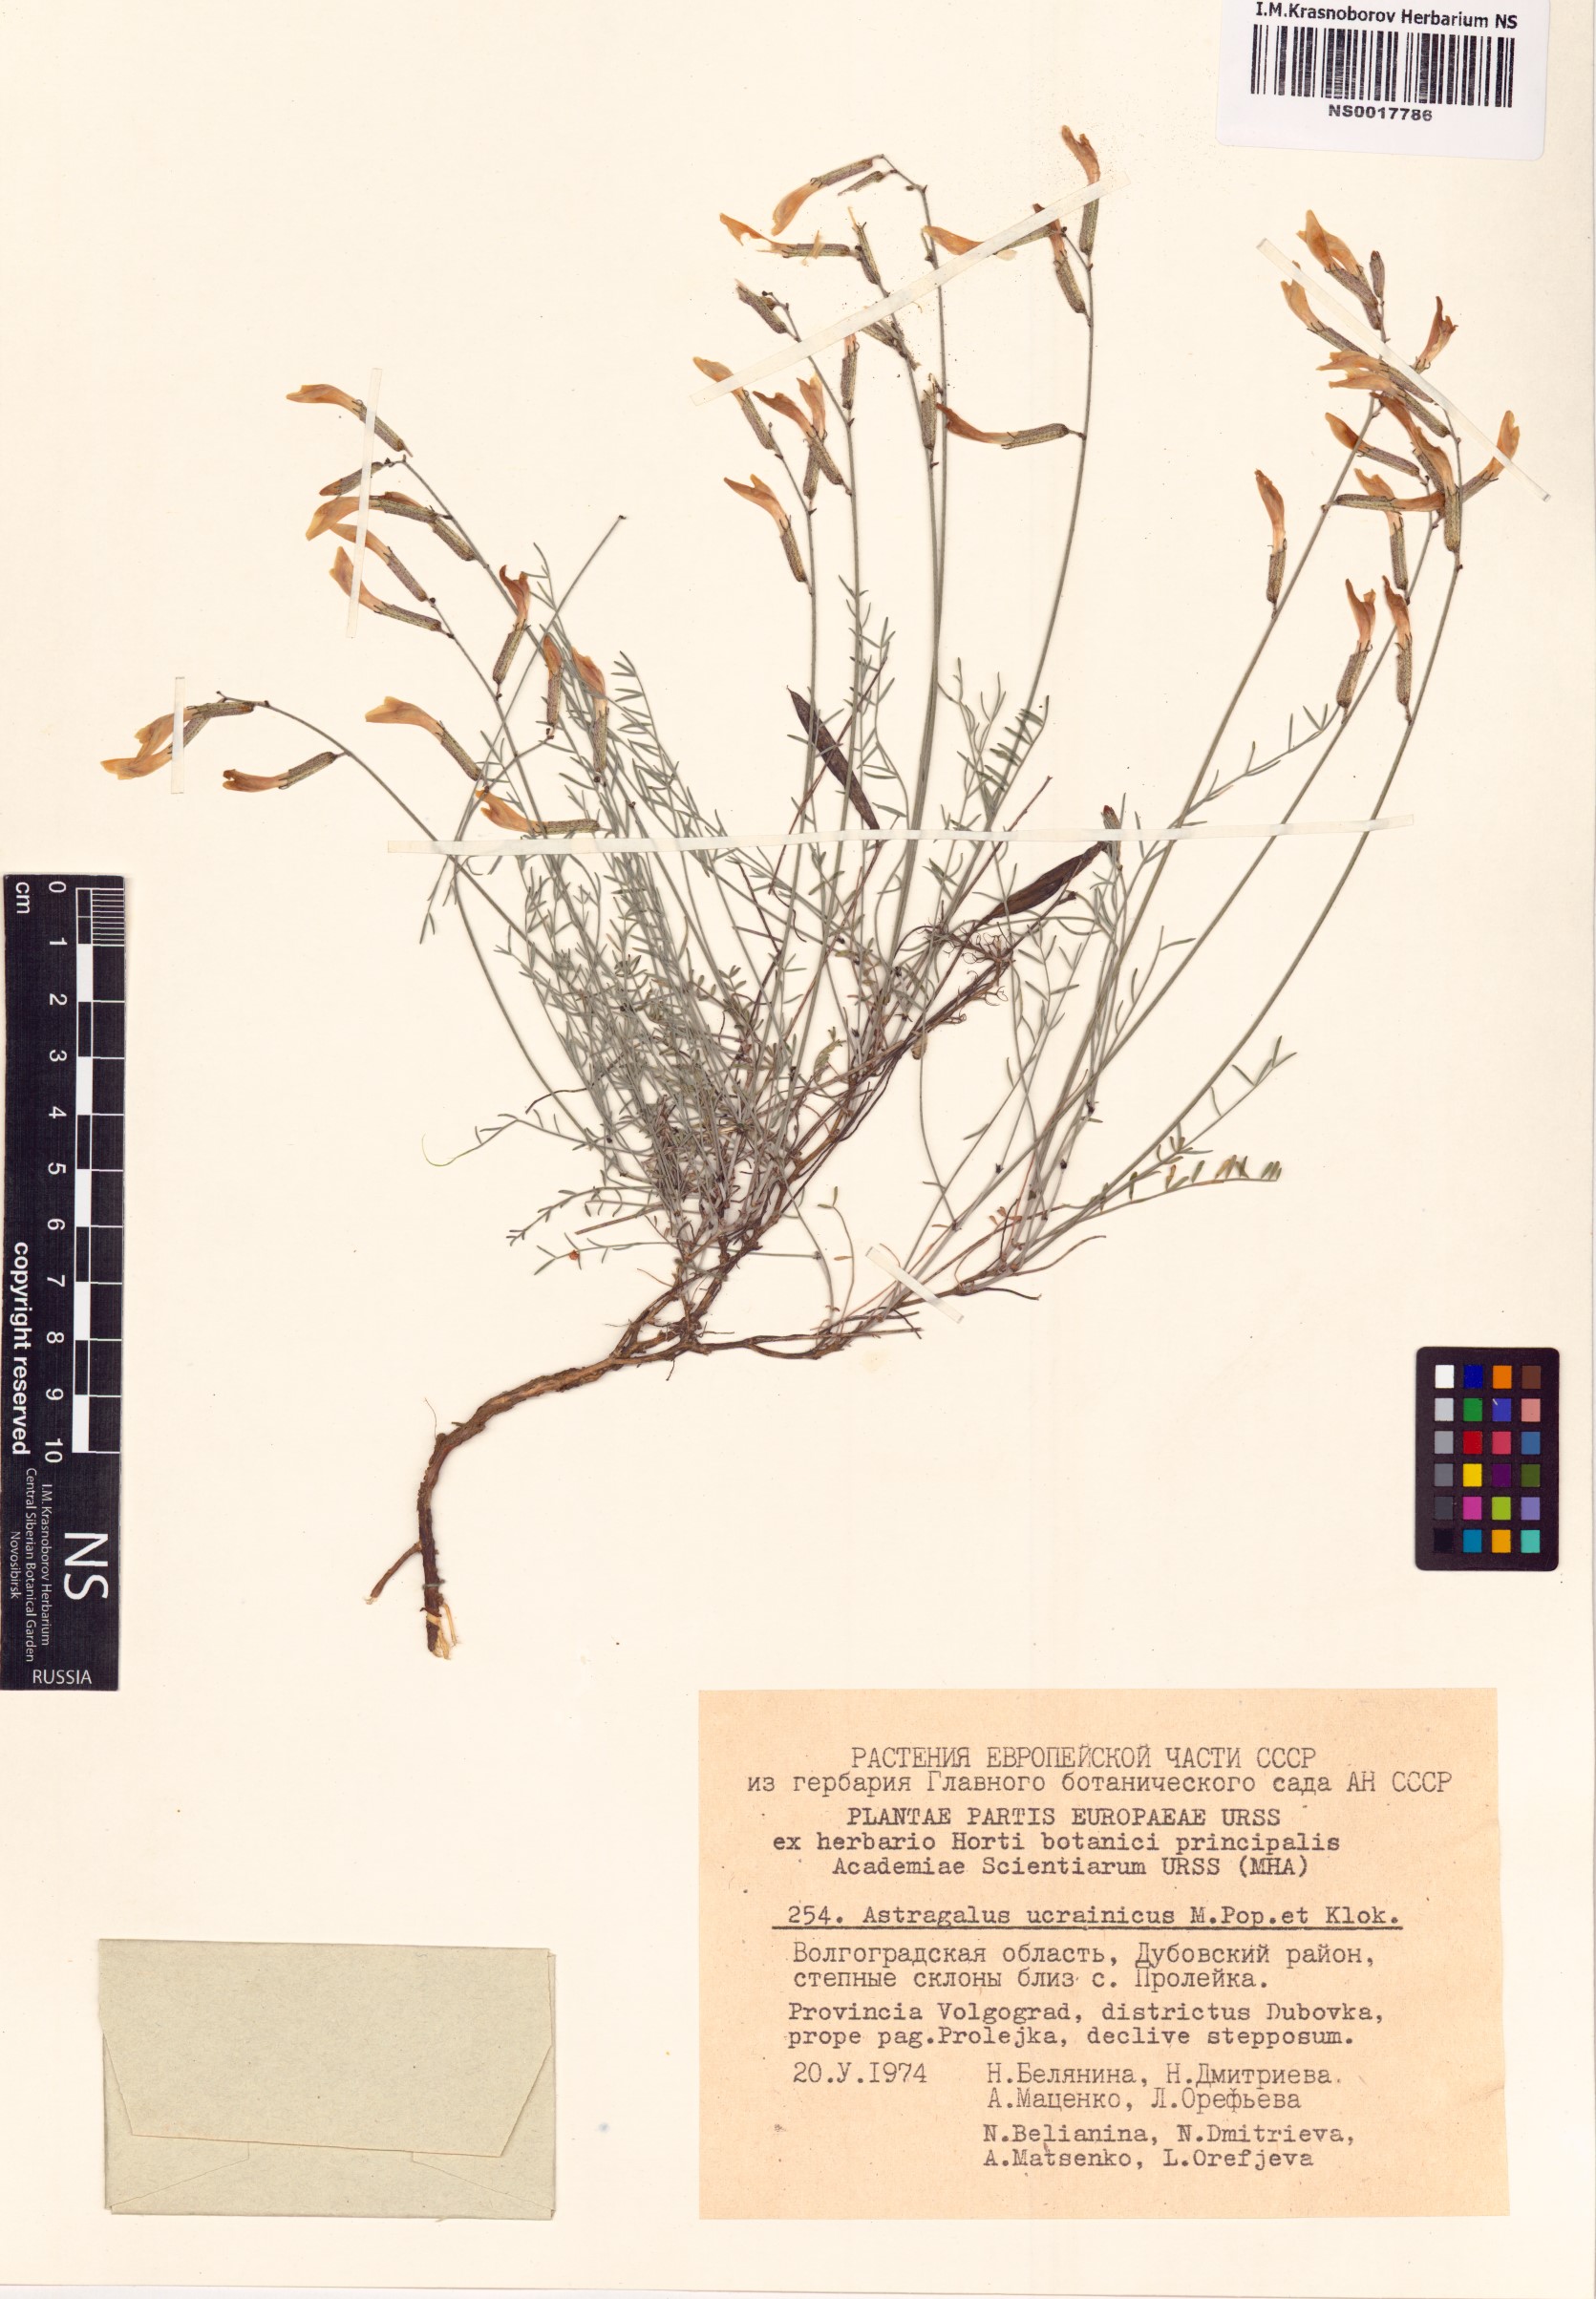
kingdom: Plantae
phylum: Tracheophyta
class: Magnoliopsida
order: Fabales
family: Fabaceae
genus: Astragalus
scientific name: Astragalus ucrainicus
